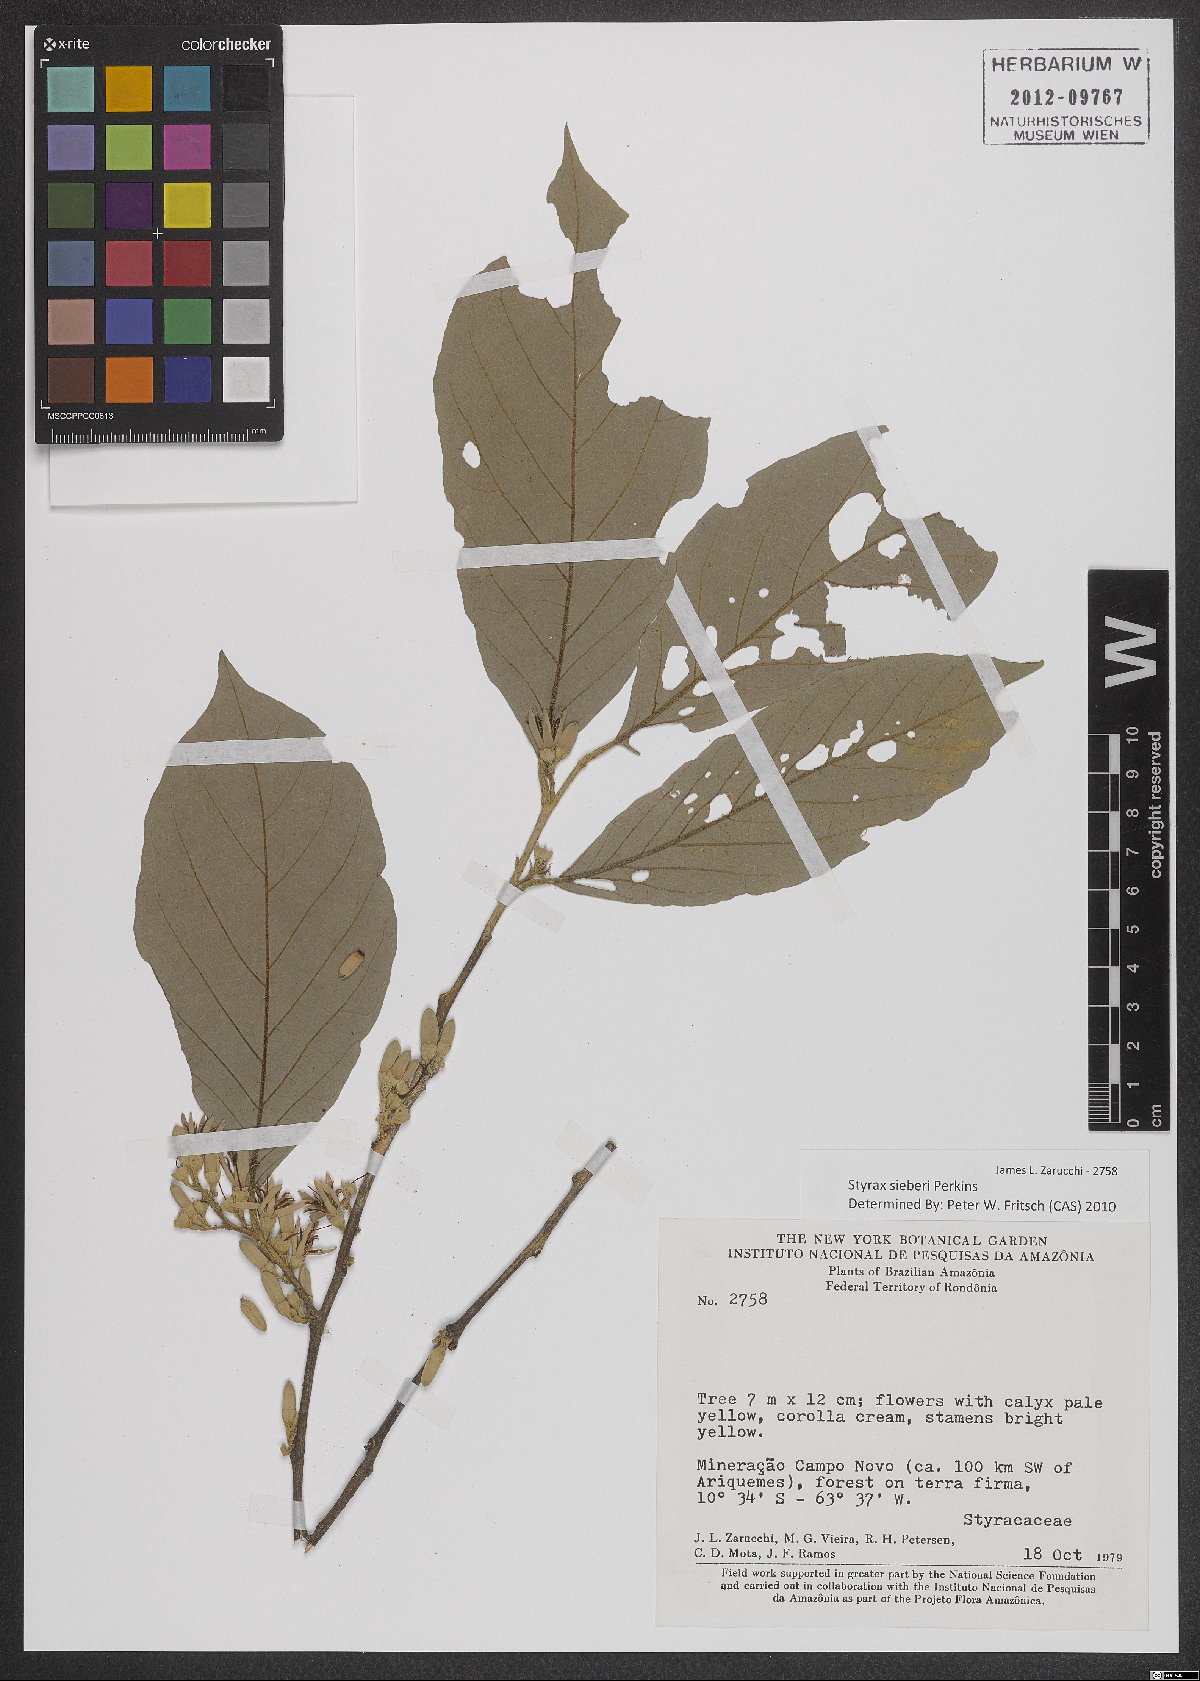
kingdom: Plantae
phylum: Tracheophyta
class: Magnoliopsida
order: Ericales
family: Styracaceae
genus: Styrax
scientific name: Styrax sieberi
